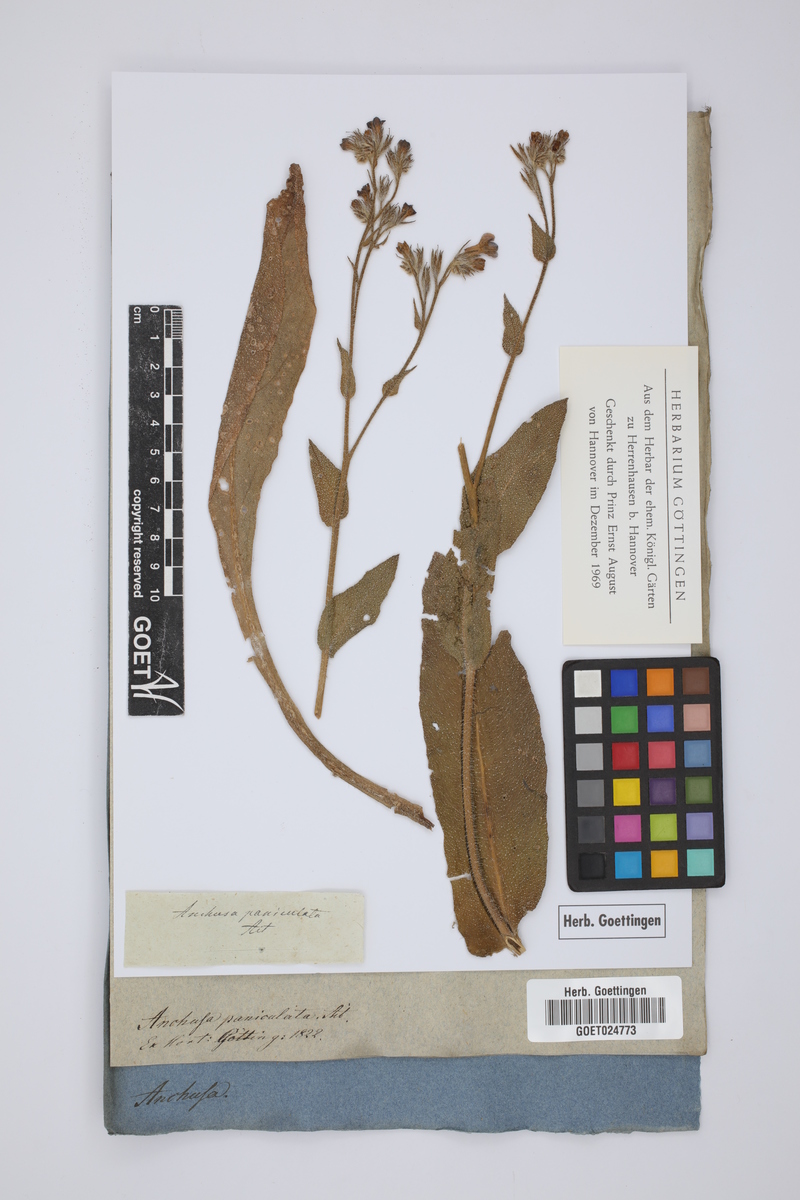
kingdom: Plantae
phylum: Tracheophyta
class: Magnoliopsida
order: Boraginales
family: Boraginaceae
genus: Anchusa
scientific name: Anchusa azurea
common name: Garden anchusa
